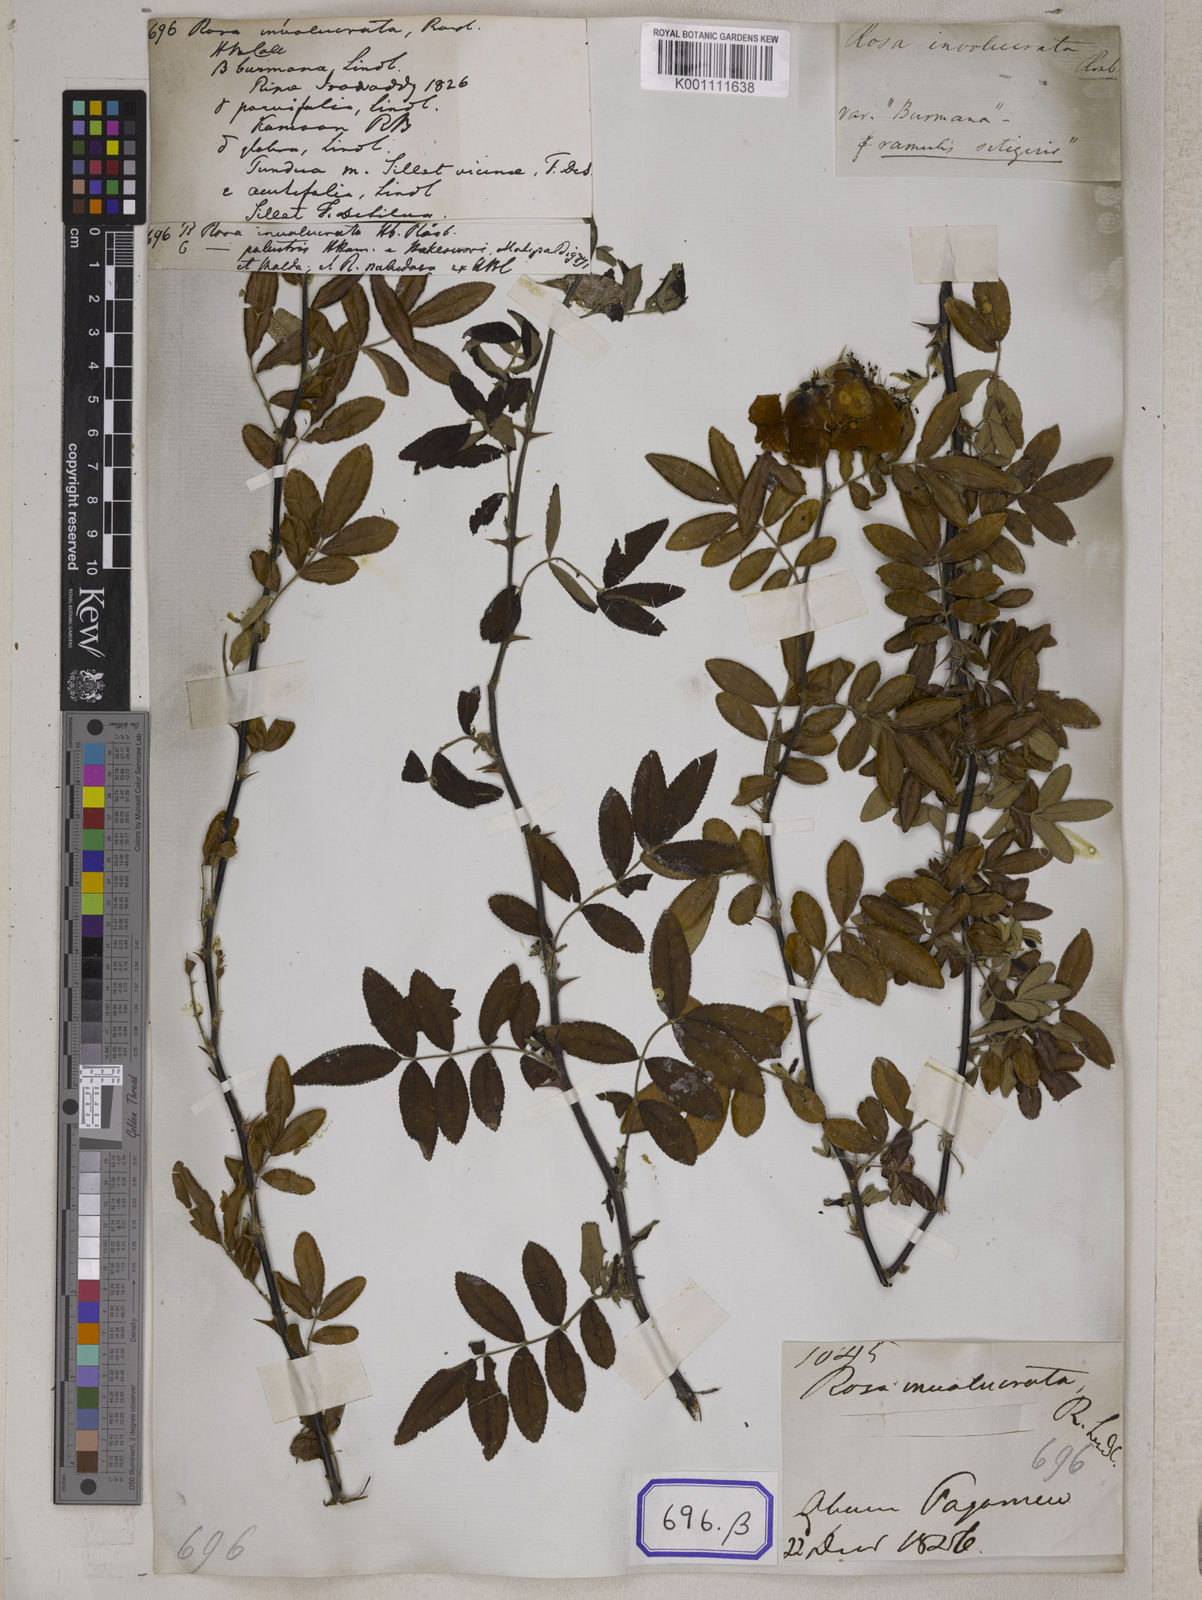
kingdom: Plantae
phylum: Tracheophyta
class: Magnoliopsida
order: Rosales
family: Rosaceae
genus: Rosa
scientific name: Rosa
